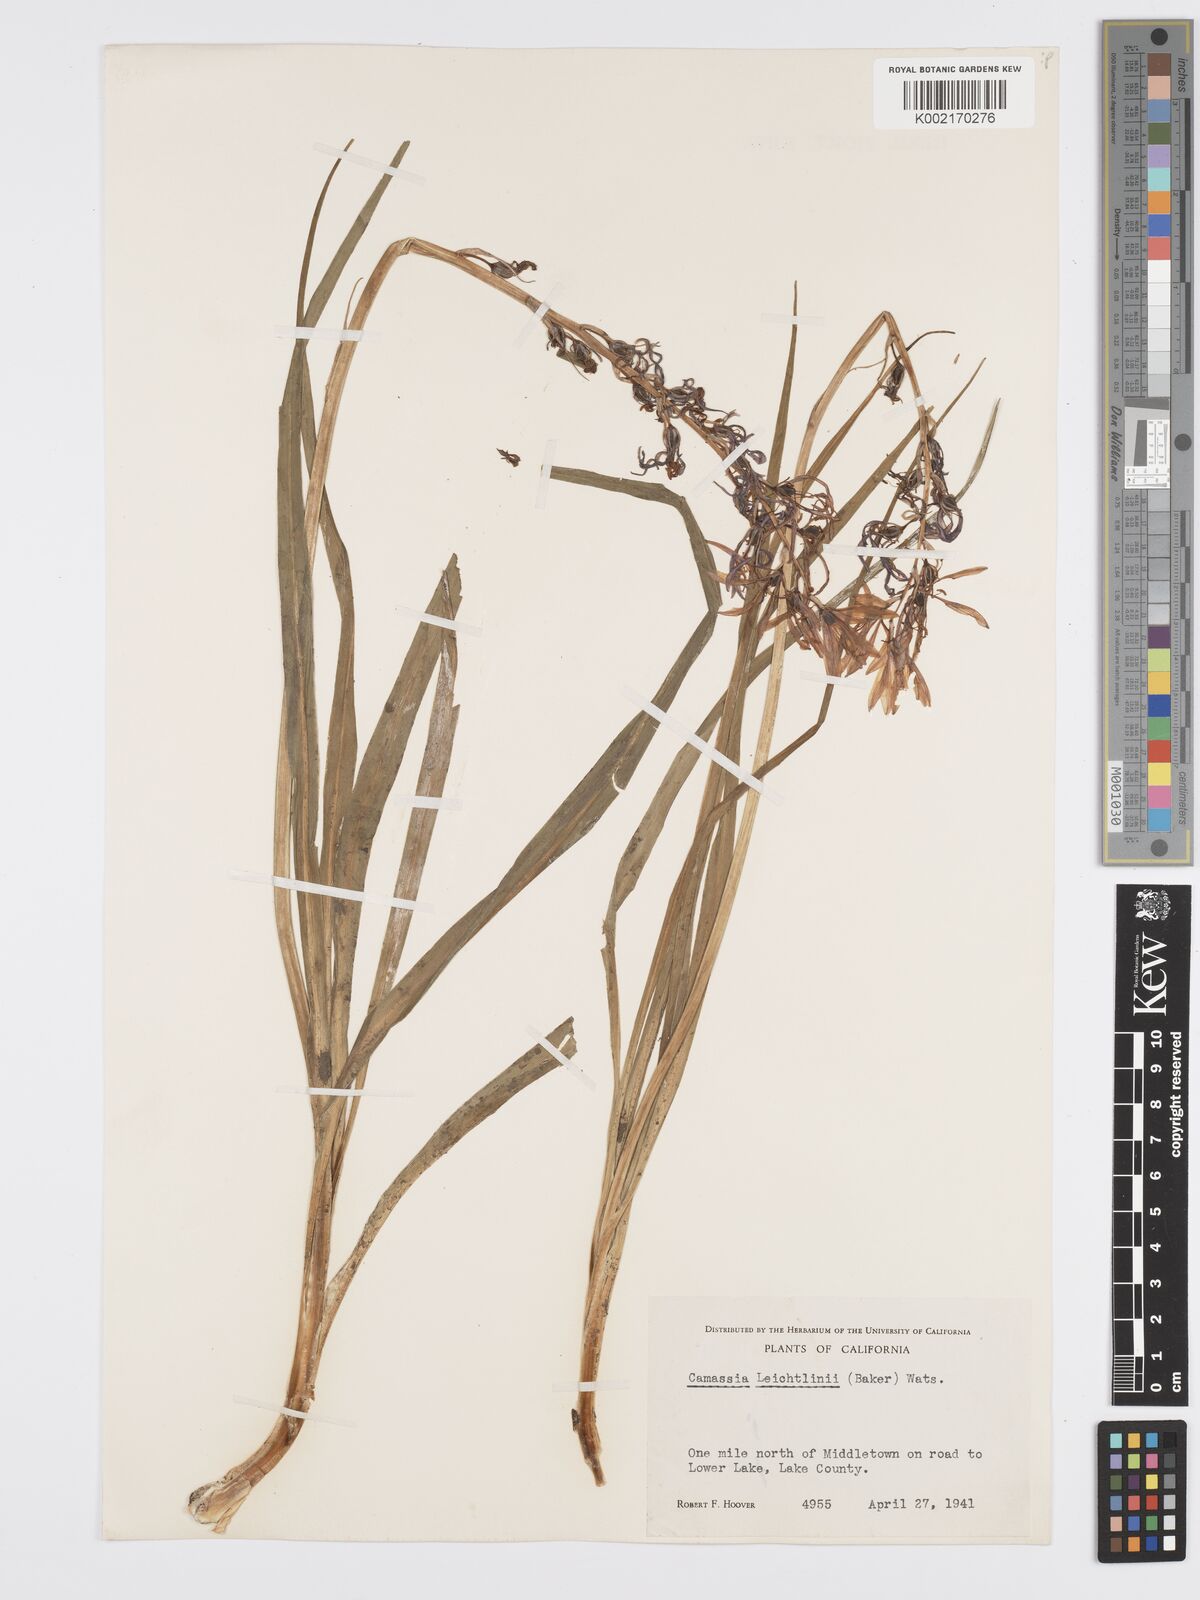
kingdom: Plantae
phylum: Tracheophyta
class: Liliopsida
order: Asparagales
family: Asparagaceae
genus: Camassia
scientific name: Camassia leichtlinii
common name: Leichtlin's camas
